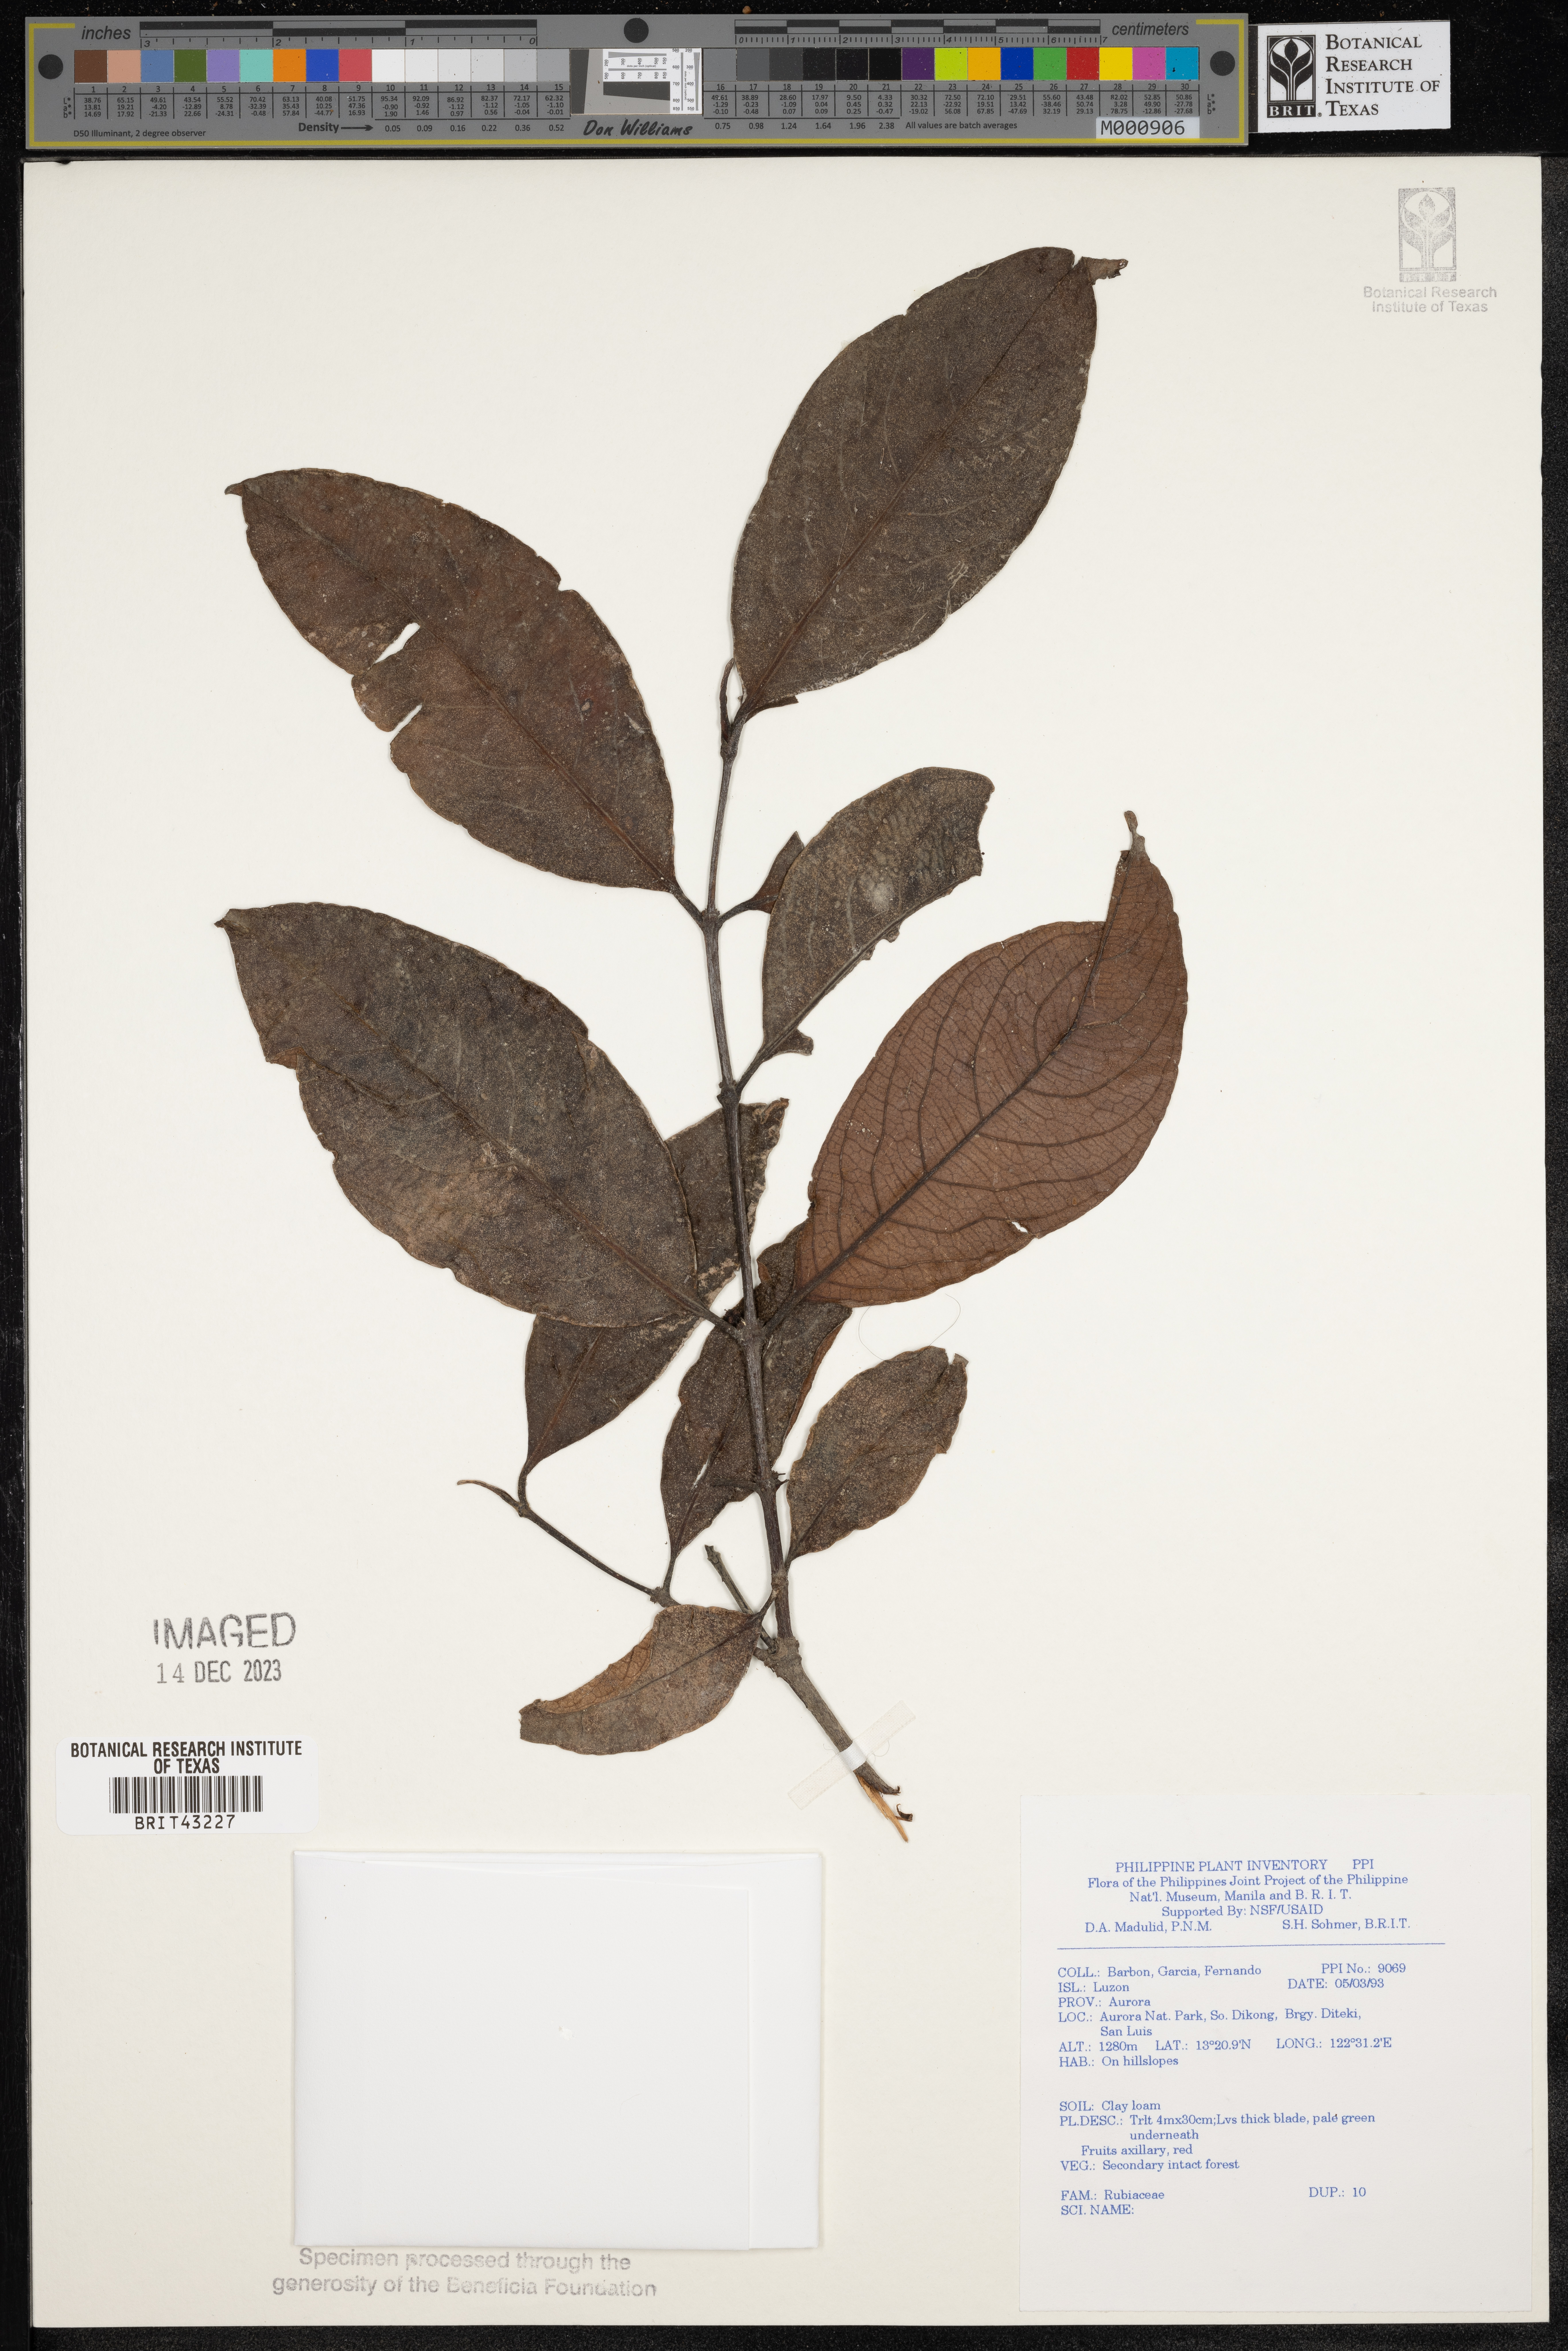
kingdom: Plantae
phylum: Tracheophyta
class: Magnoliopsida
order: Gentianales
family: Rubiaceae
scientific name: Rubiaceae
